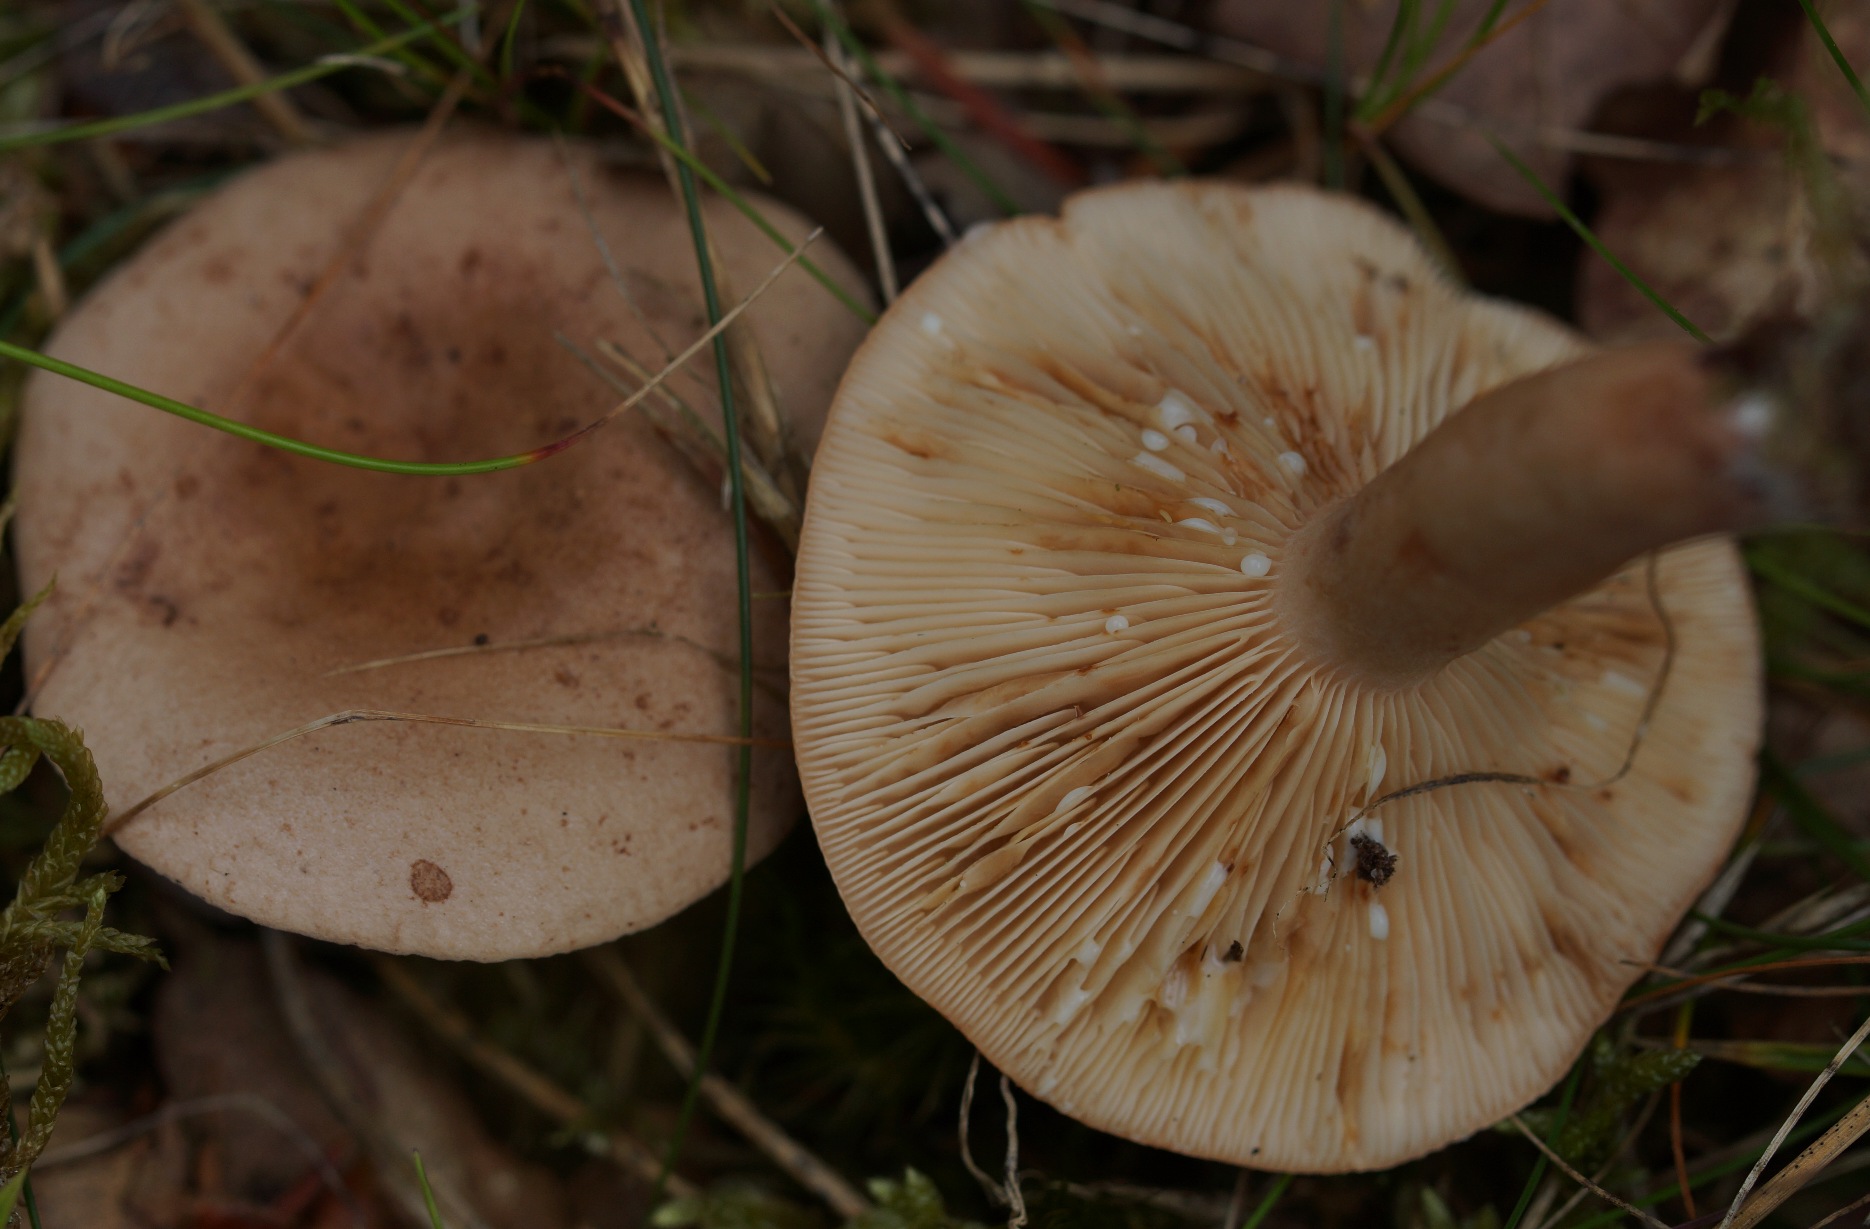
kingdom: Fungi
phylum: Basidiomycota
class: Agaricomycetes
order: Russulales
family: Russulaceae
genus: Lactarius
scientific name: Lactarius quietus
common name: Ege-mælkehat
